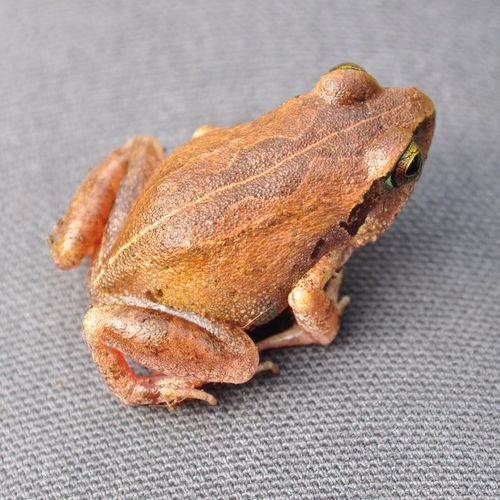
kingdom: Animalia
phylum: Chordata
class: Amphibia
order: Anura
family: Arthroleptidae
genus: Arthroleptis
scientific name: Arthroleptis stenodactylus
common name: Dune squeaker
